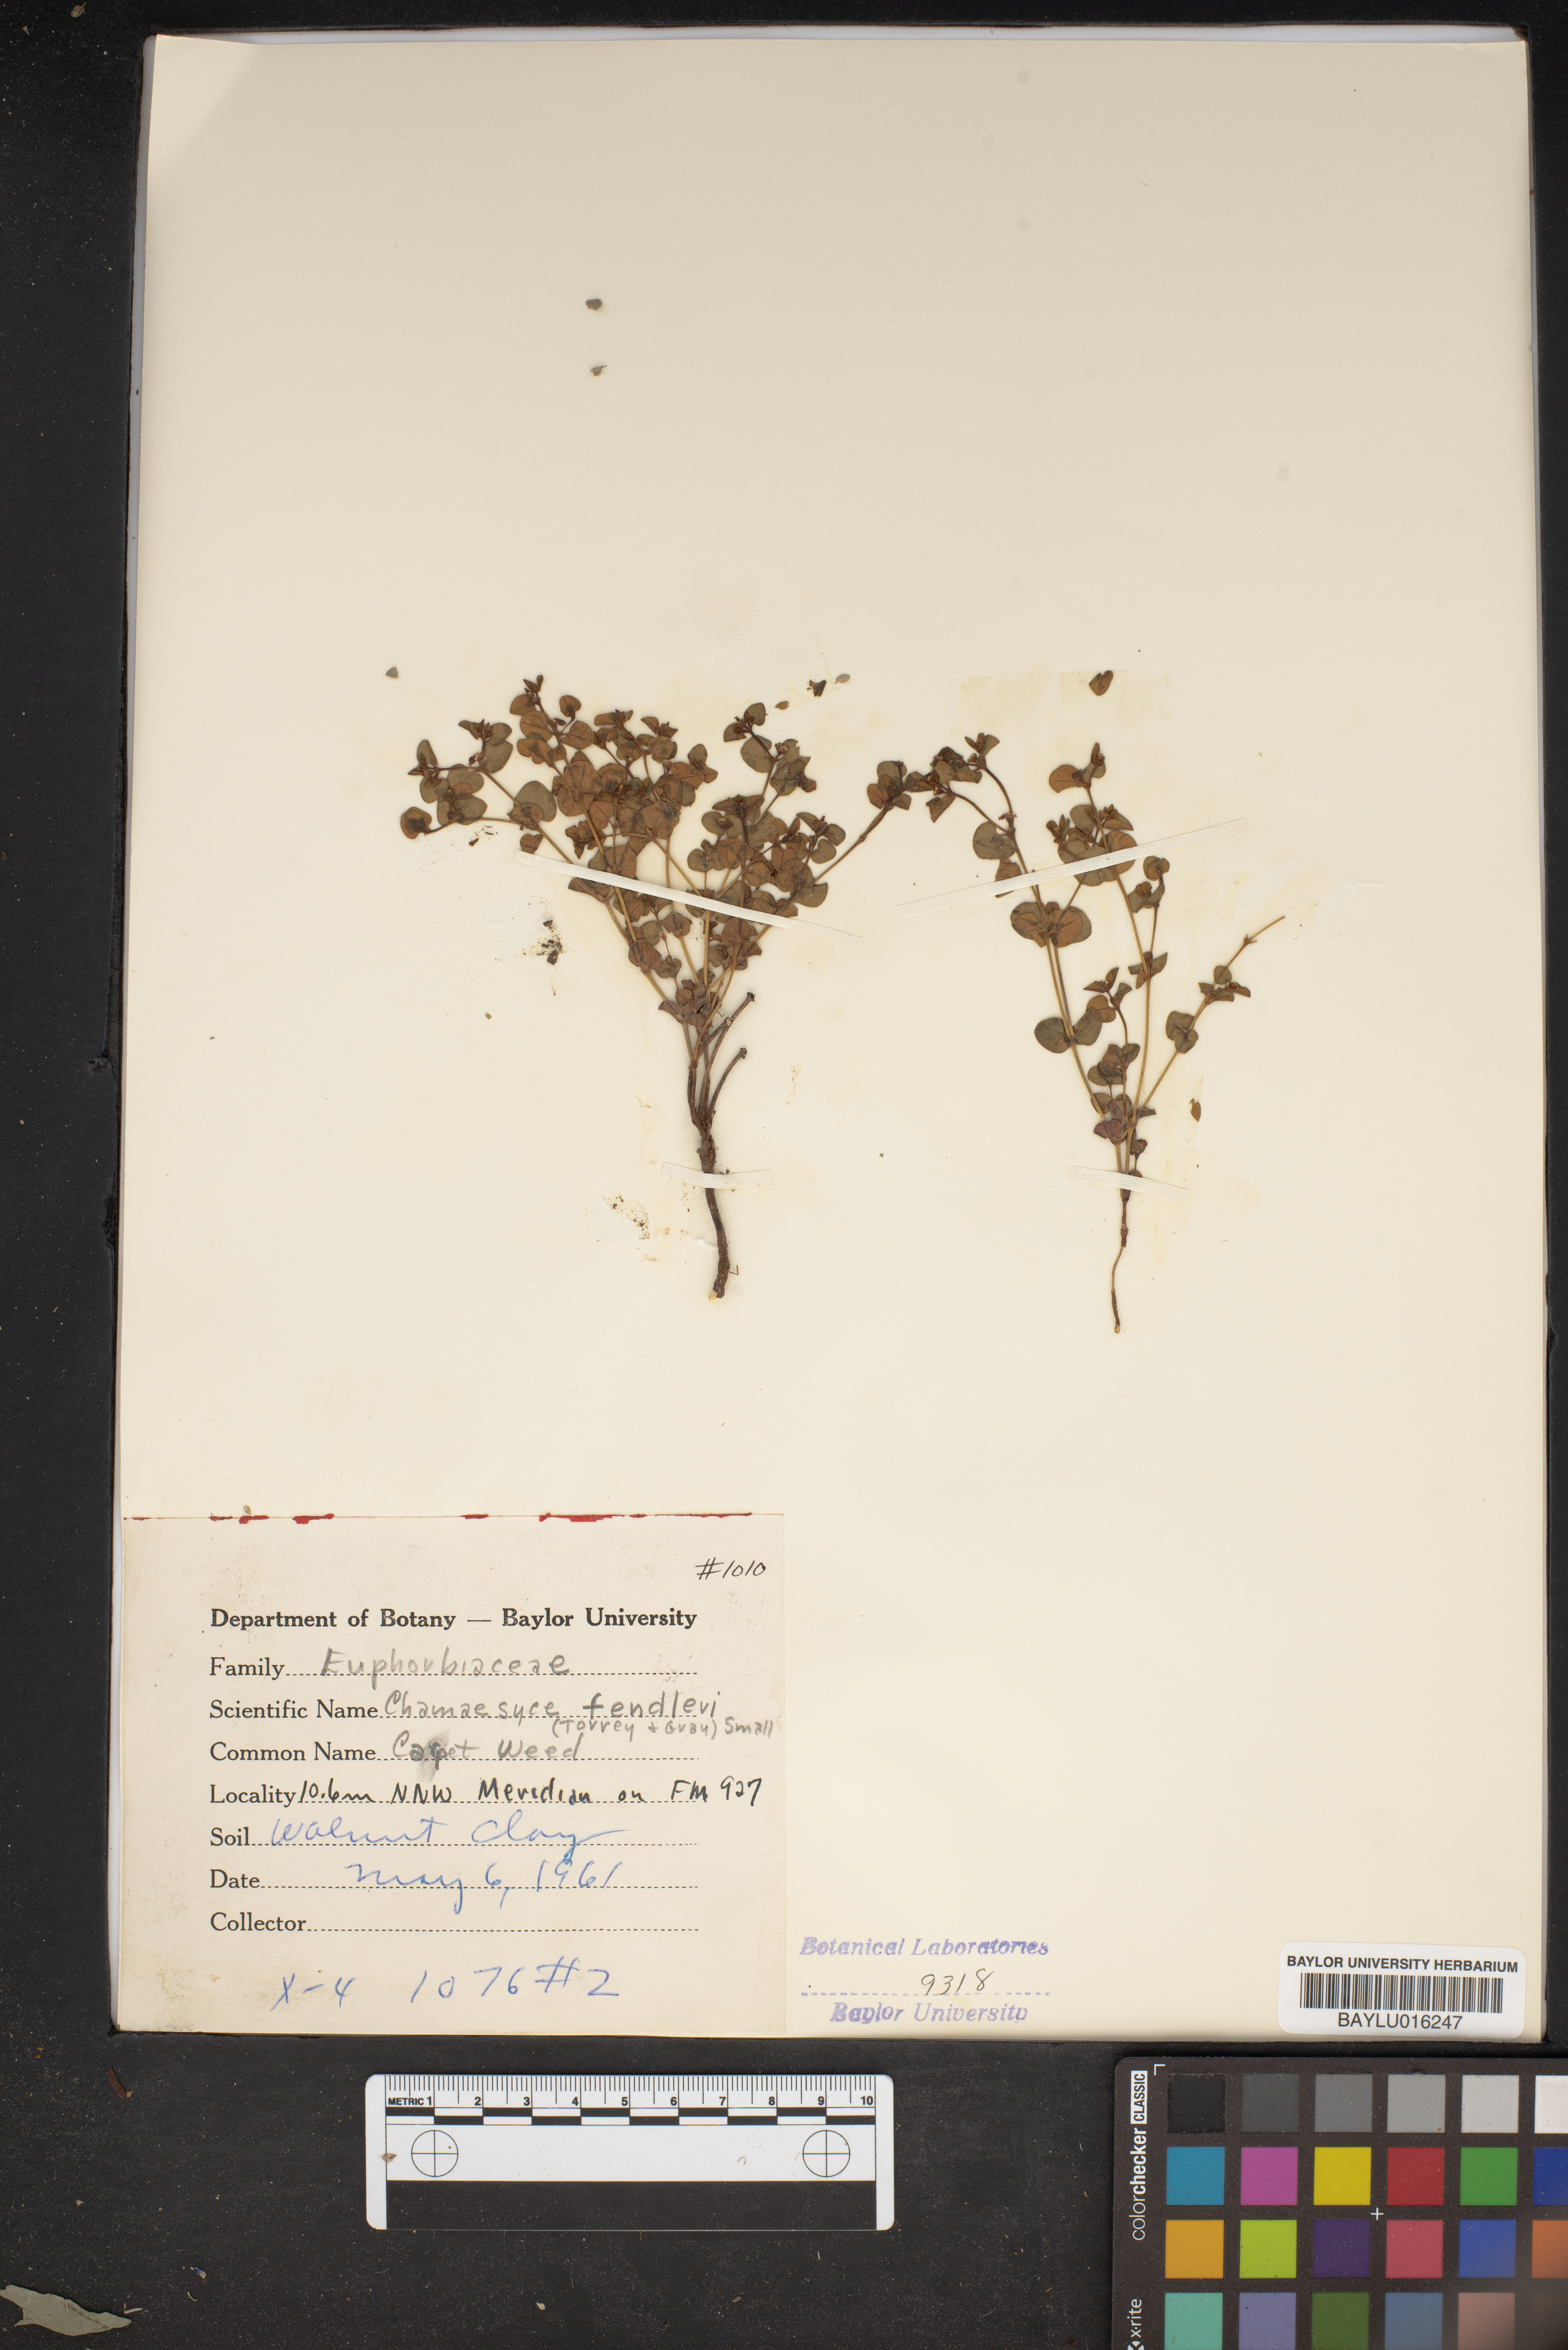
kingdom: Plantae
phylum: Tracheophyta
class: Magnoliopsida
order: Malpighiales
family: Euphorbiaceae
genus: Euphorbia
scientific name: Euphorbia fendleri
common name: Fendler's euphorbia
